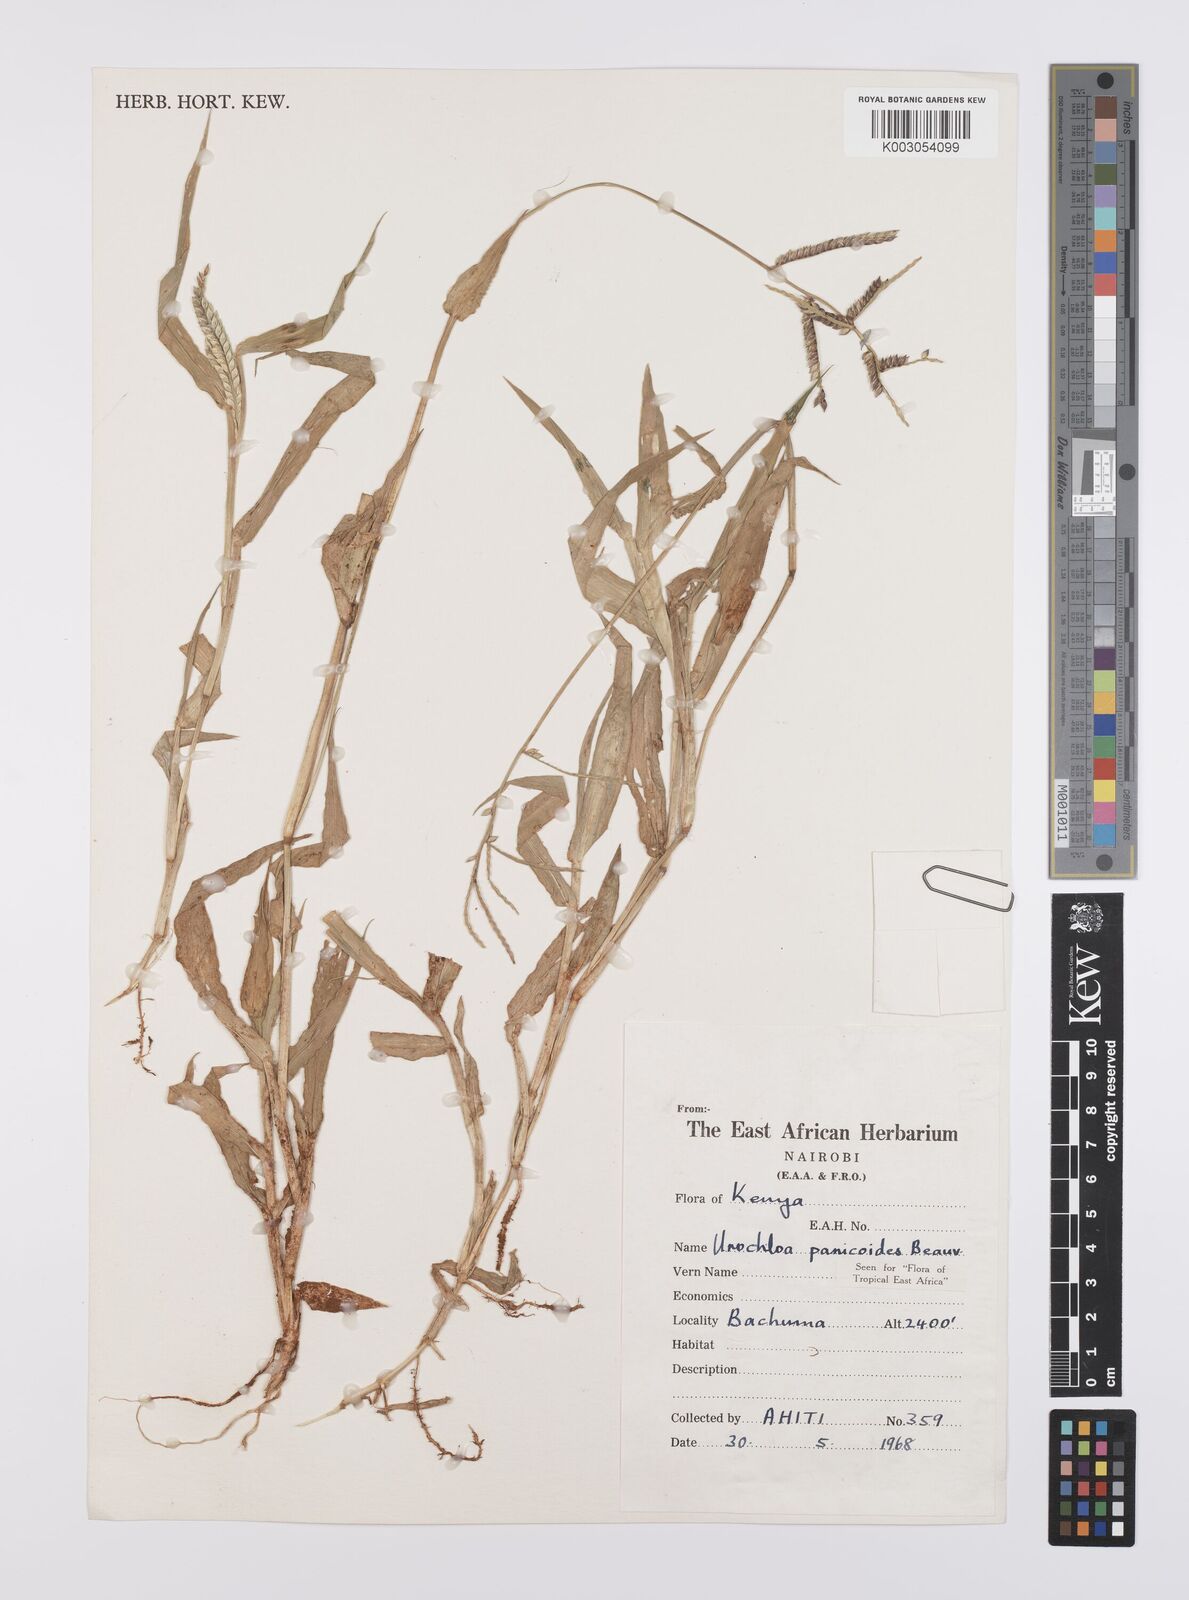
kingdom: Plantae
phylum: Tracheophyta
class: Liliopsida
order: Poales
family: Poaceae
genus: Urochloa
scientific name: Urochloa panicoides
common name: Sharp-flowered signal-grass
